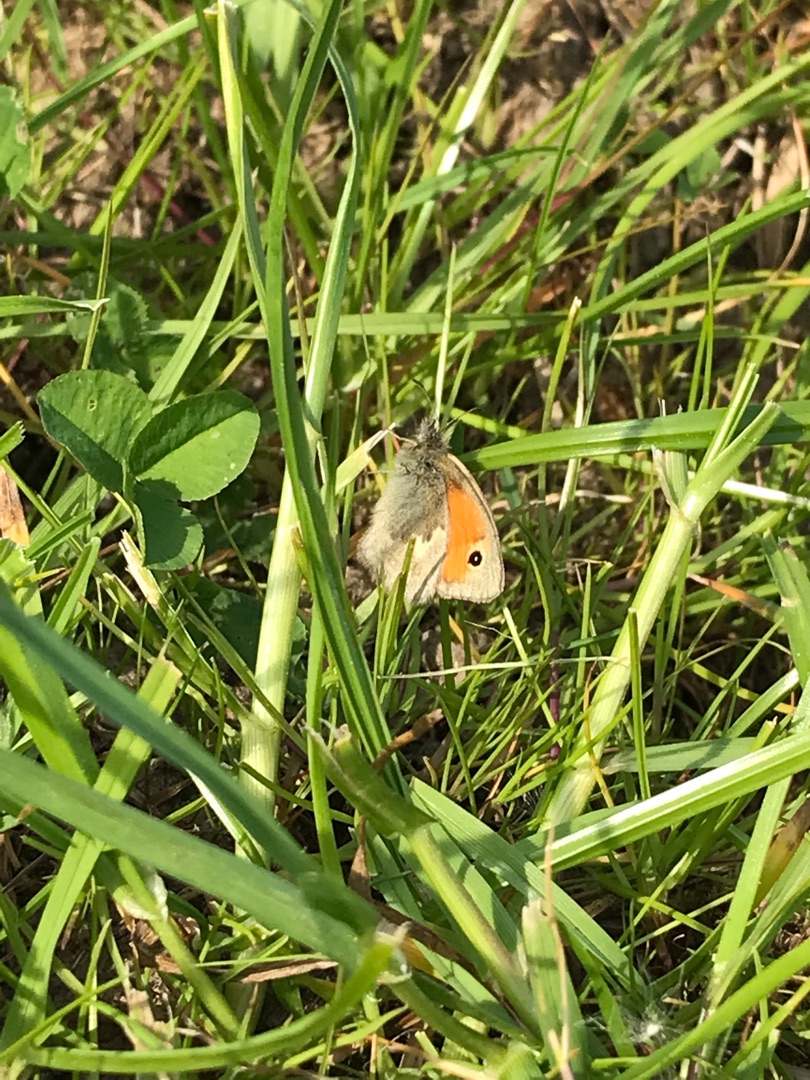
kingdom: Animalia
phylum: Arthropoda
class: Insecta
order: Lepidoptera
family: Nymphalidae
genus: Coenonympha
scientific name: Coenonympha pamphilus
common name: Okkergul randøje
